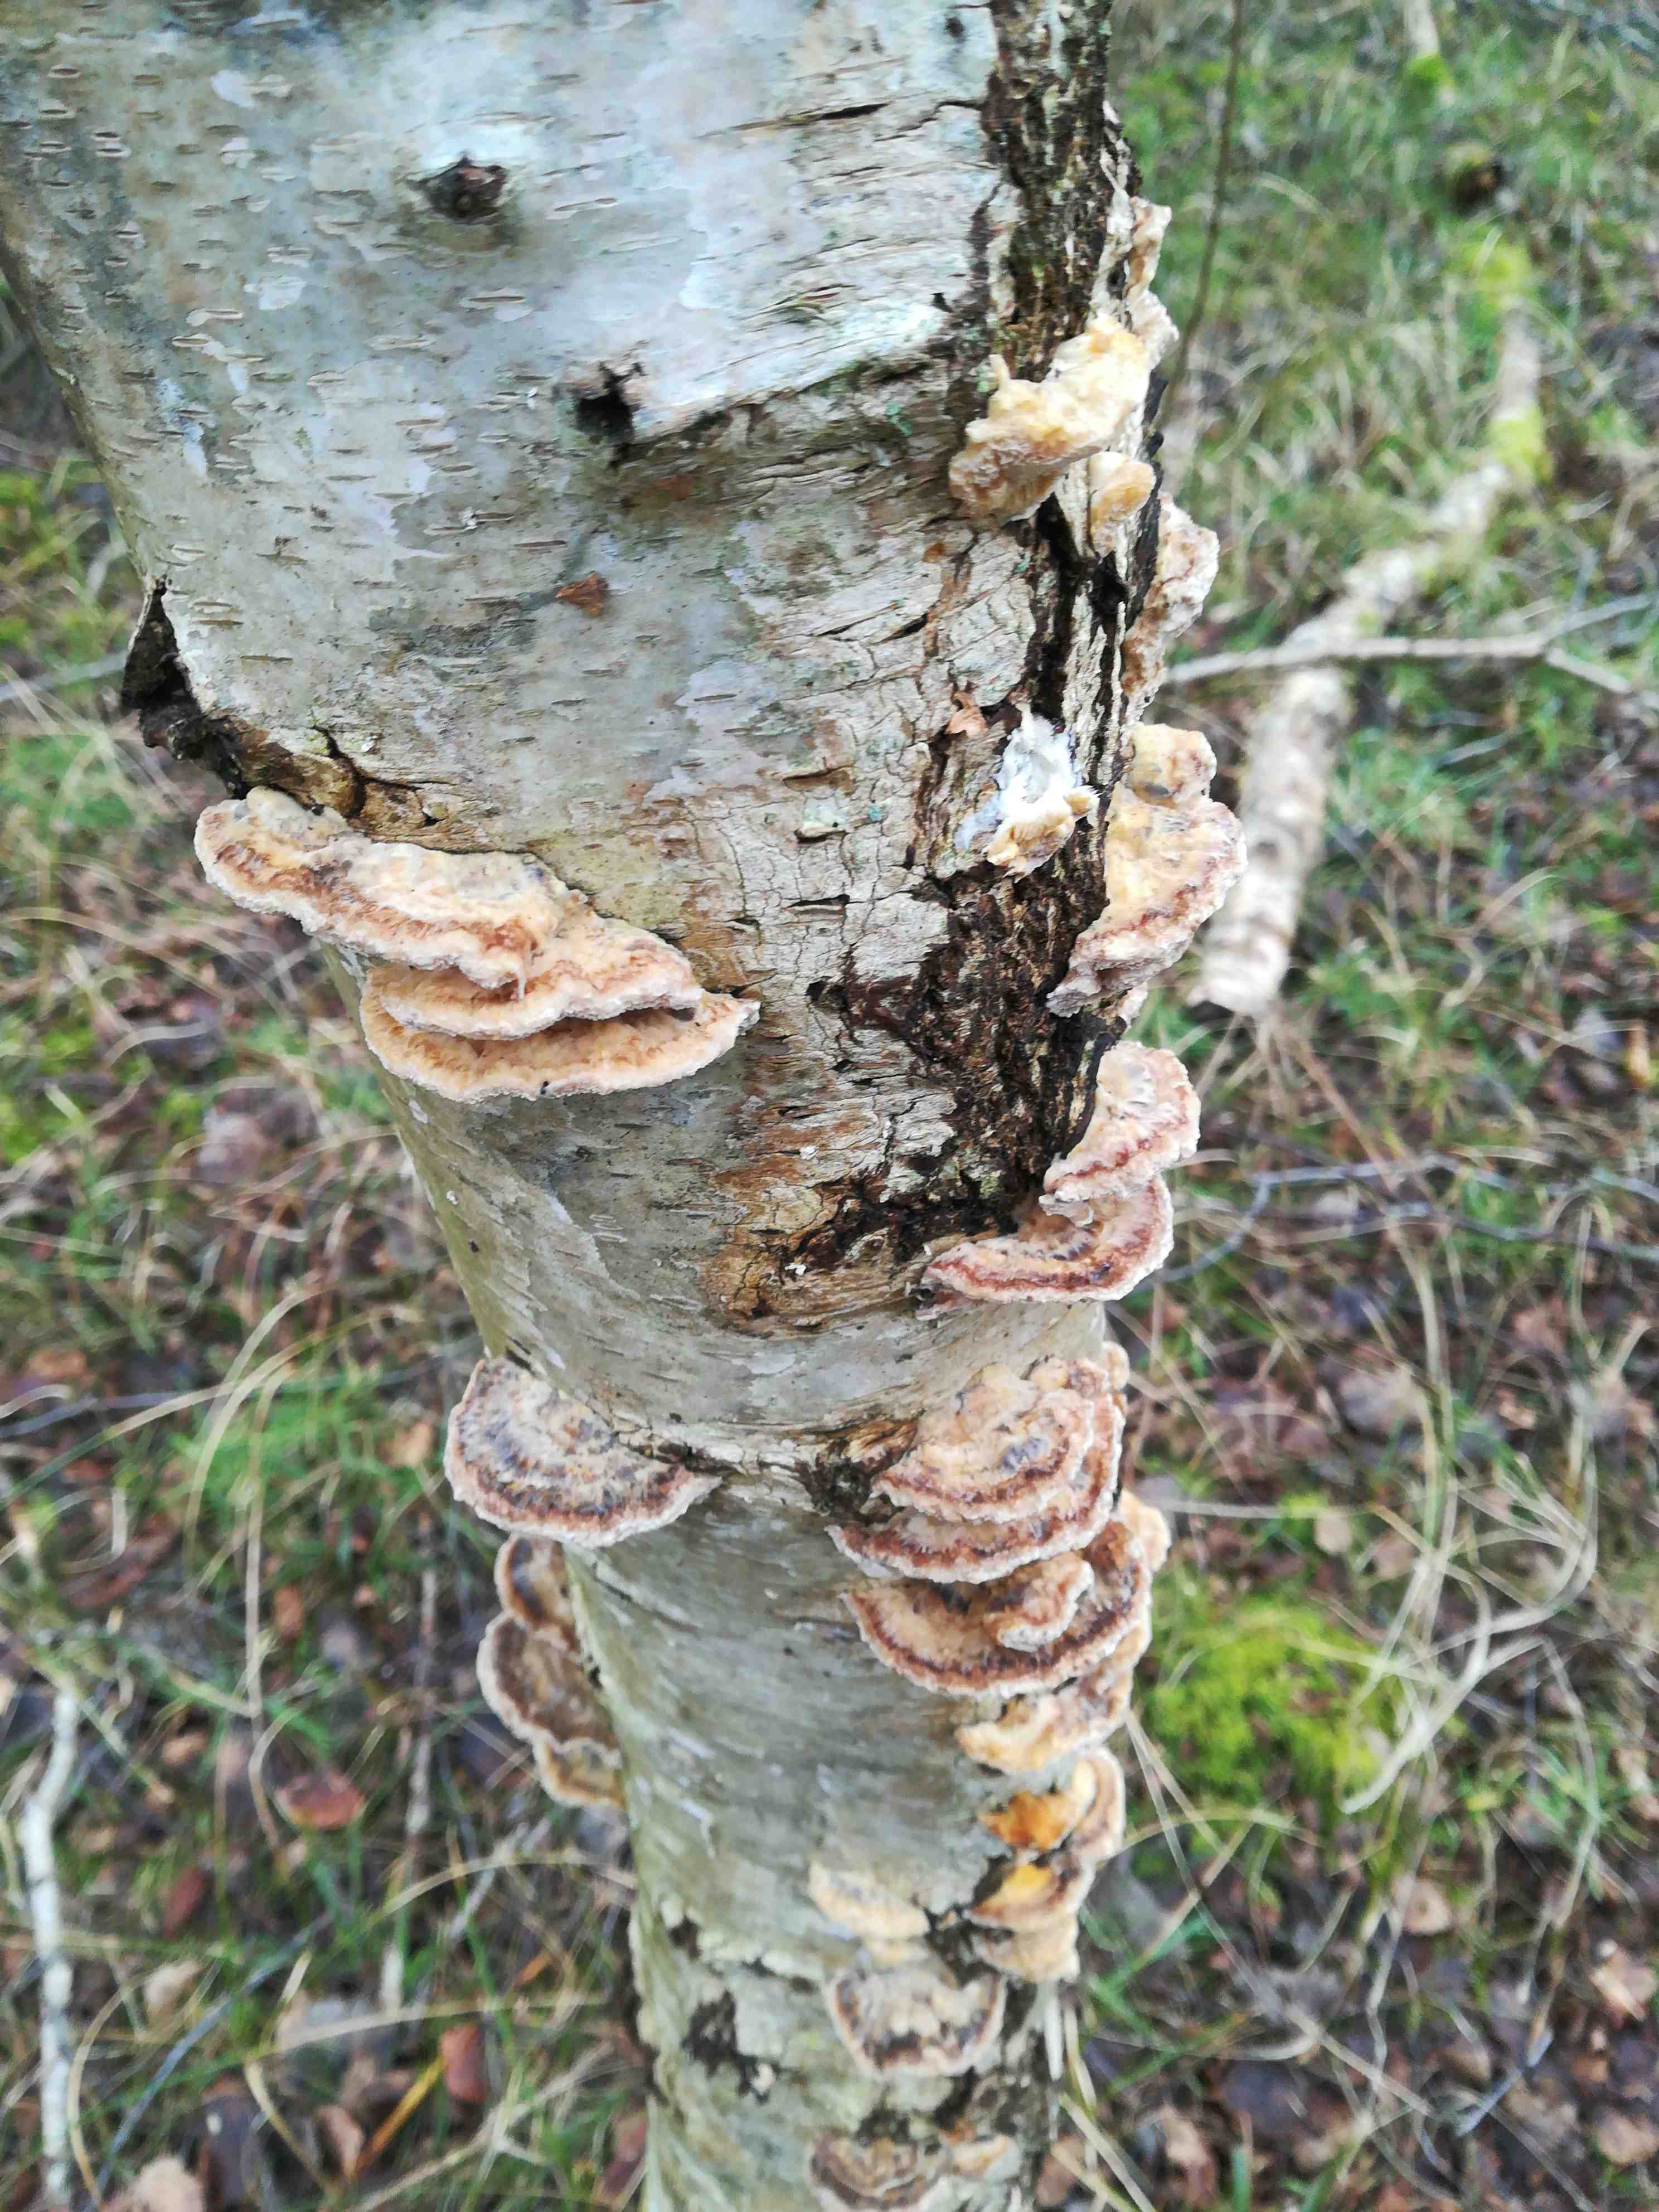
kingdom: Fungi
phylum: Basidiomycota
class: Agaricomycetes
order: Polyporales
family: Polyporaceae
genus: Trametes
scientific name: Trametes ochracea
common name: bæltet læderporesvamp
